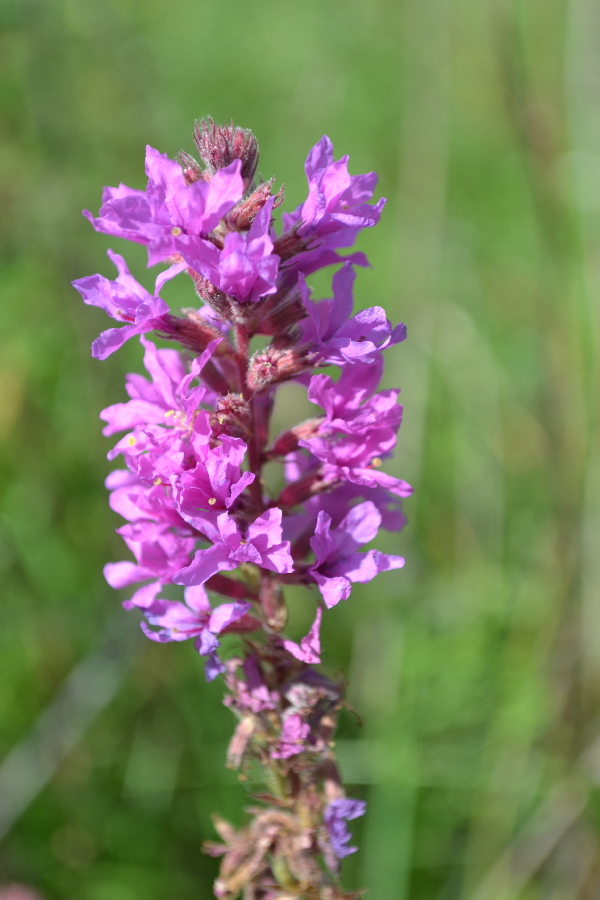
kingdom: Plantae
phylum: Tracheophyta
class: Magnoliopsida
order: Myrtales
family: Lythraceae
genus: Lythrum
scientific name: Lythrum salicaria
